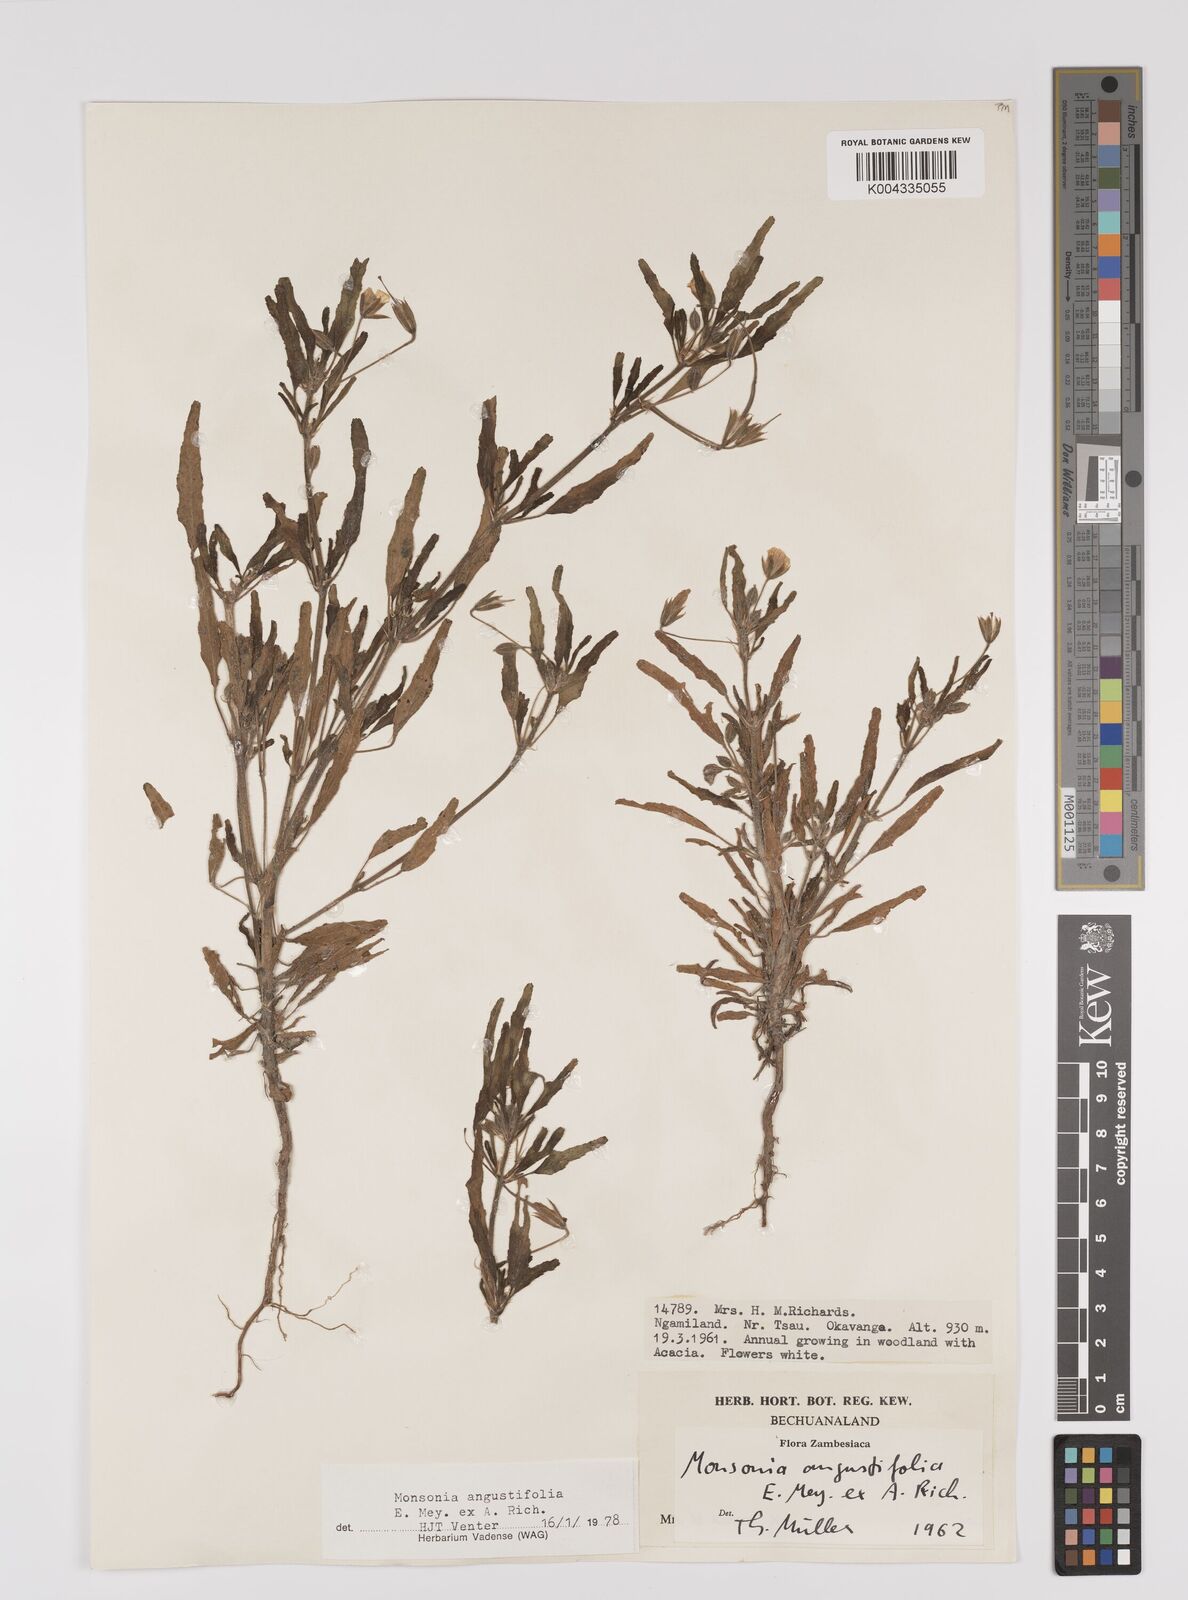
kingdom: Plantae
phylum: Tracheophyta
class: Magnoliopsida
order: Geraniales
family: Geraniaceae
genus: Monsonia
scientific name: Monsonia angustifolia
